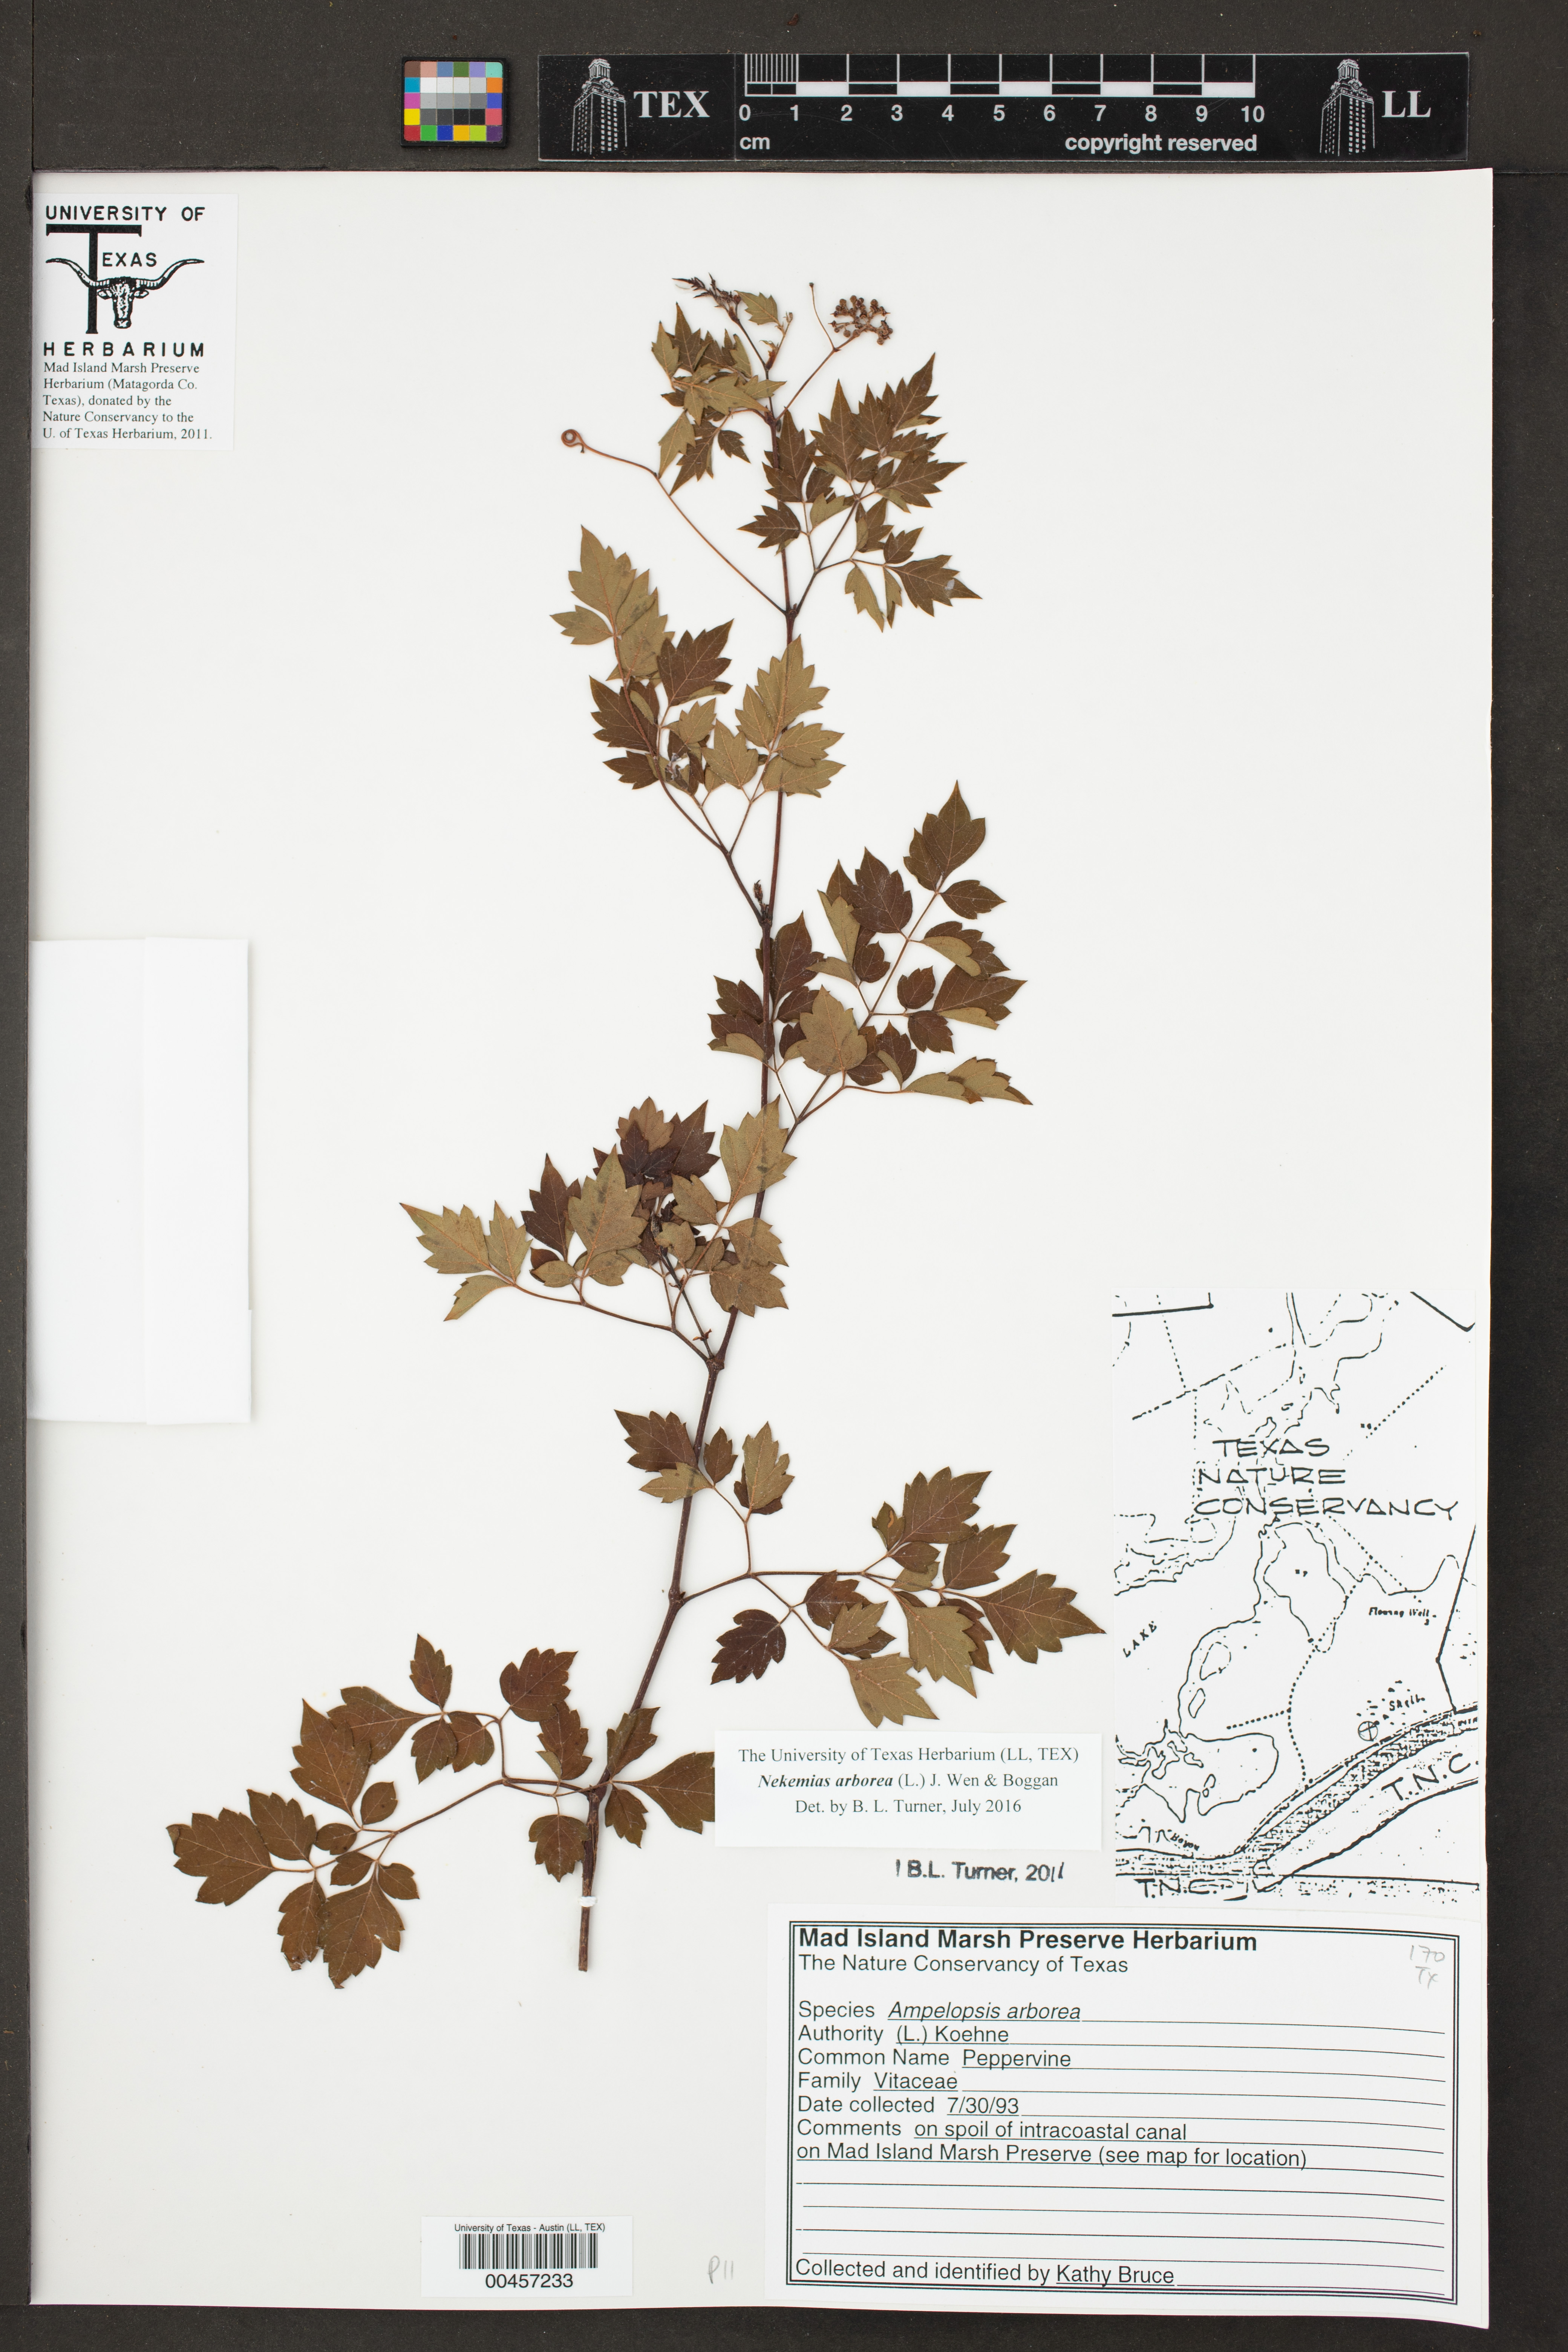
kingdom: Plantae
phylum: Tracheophyta
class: Magnoliopsida
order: Vitales
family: Vitaceae
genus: Ampelopsis
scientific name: Ampelopsis arborea
